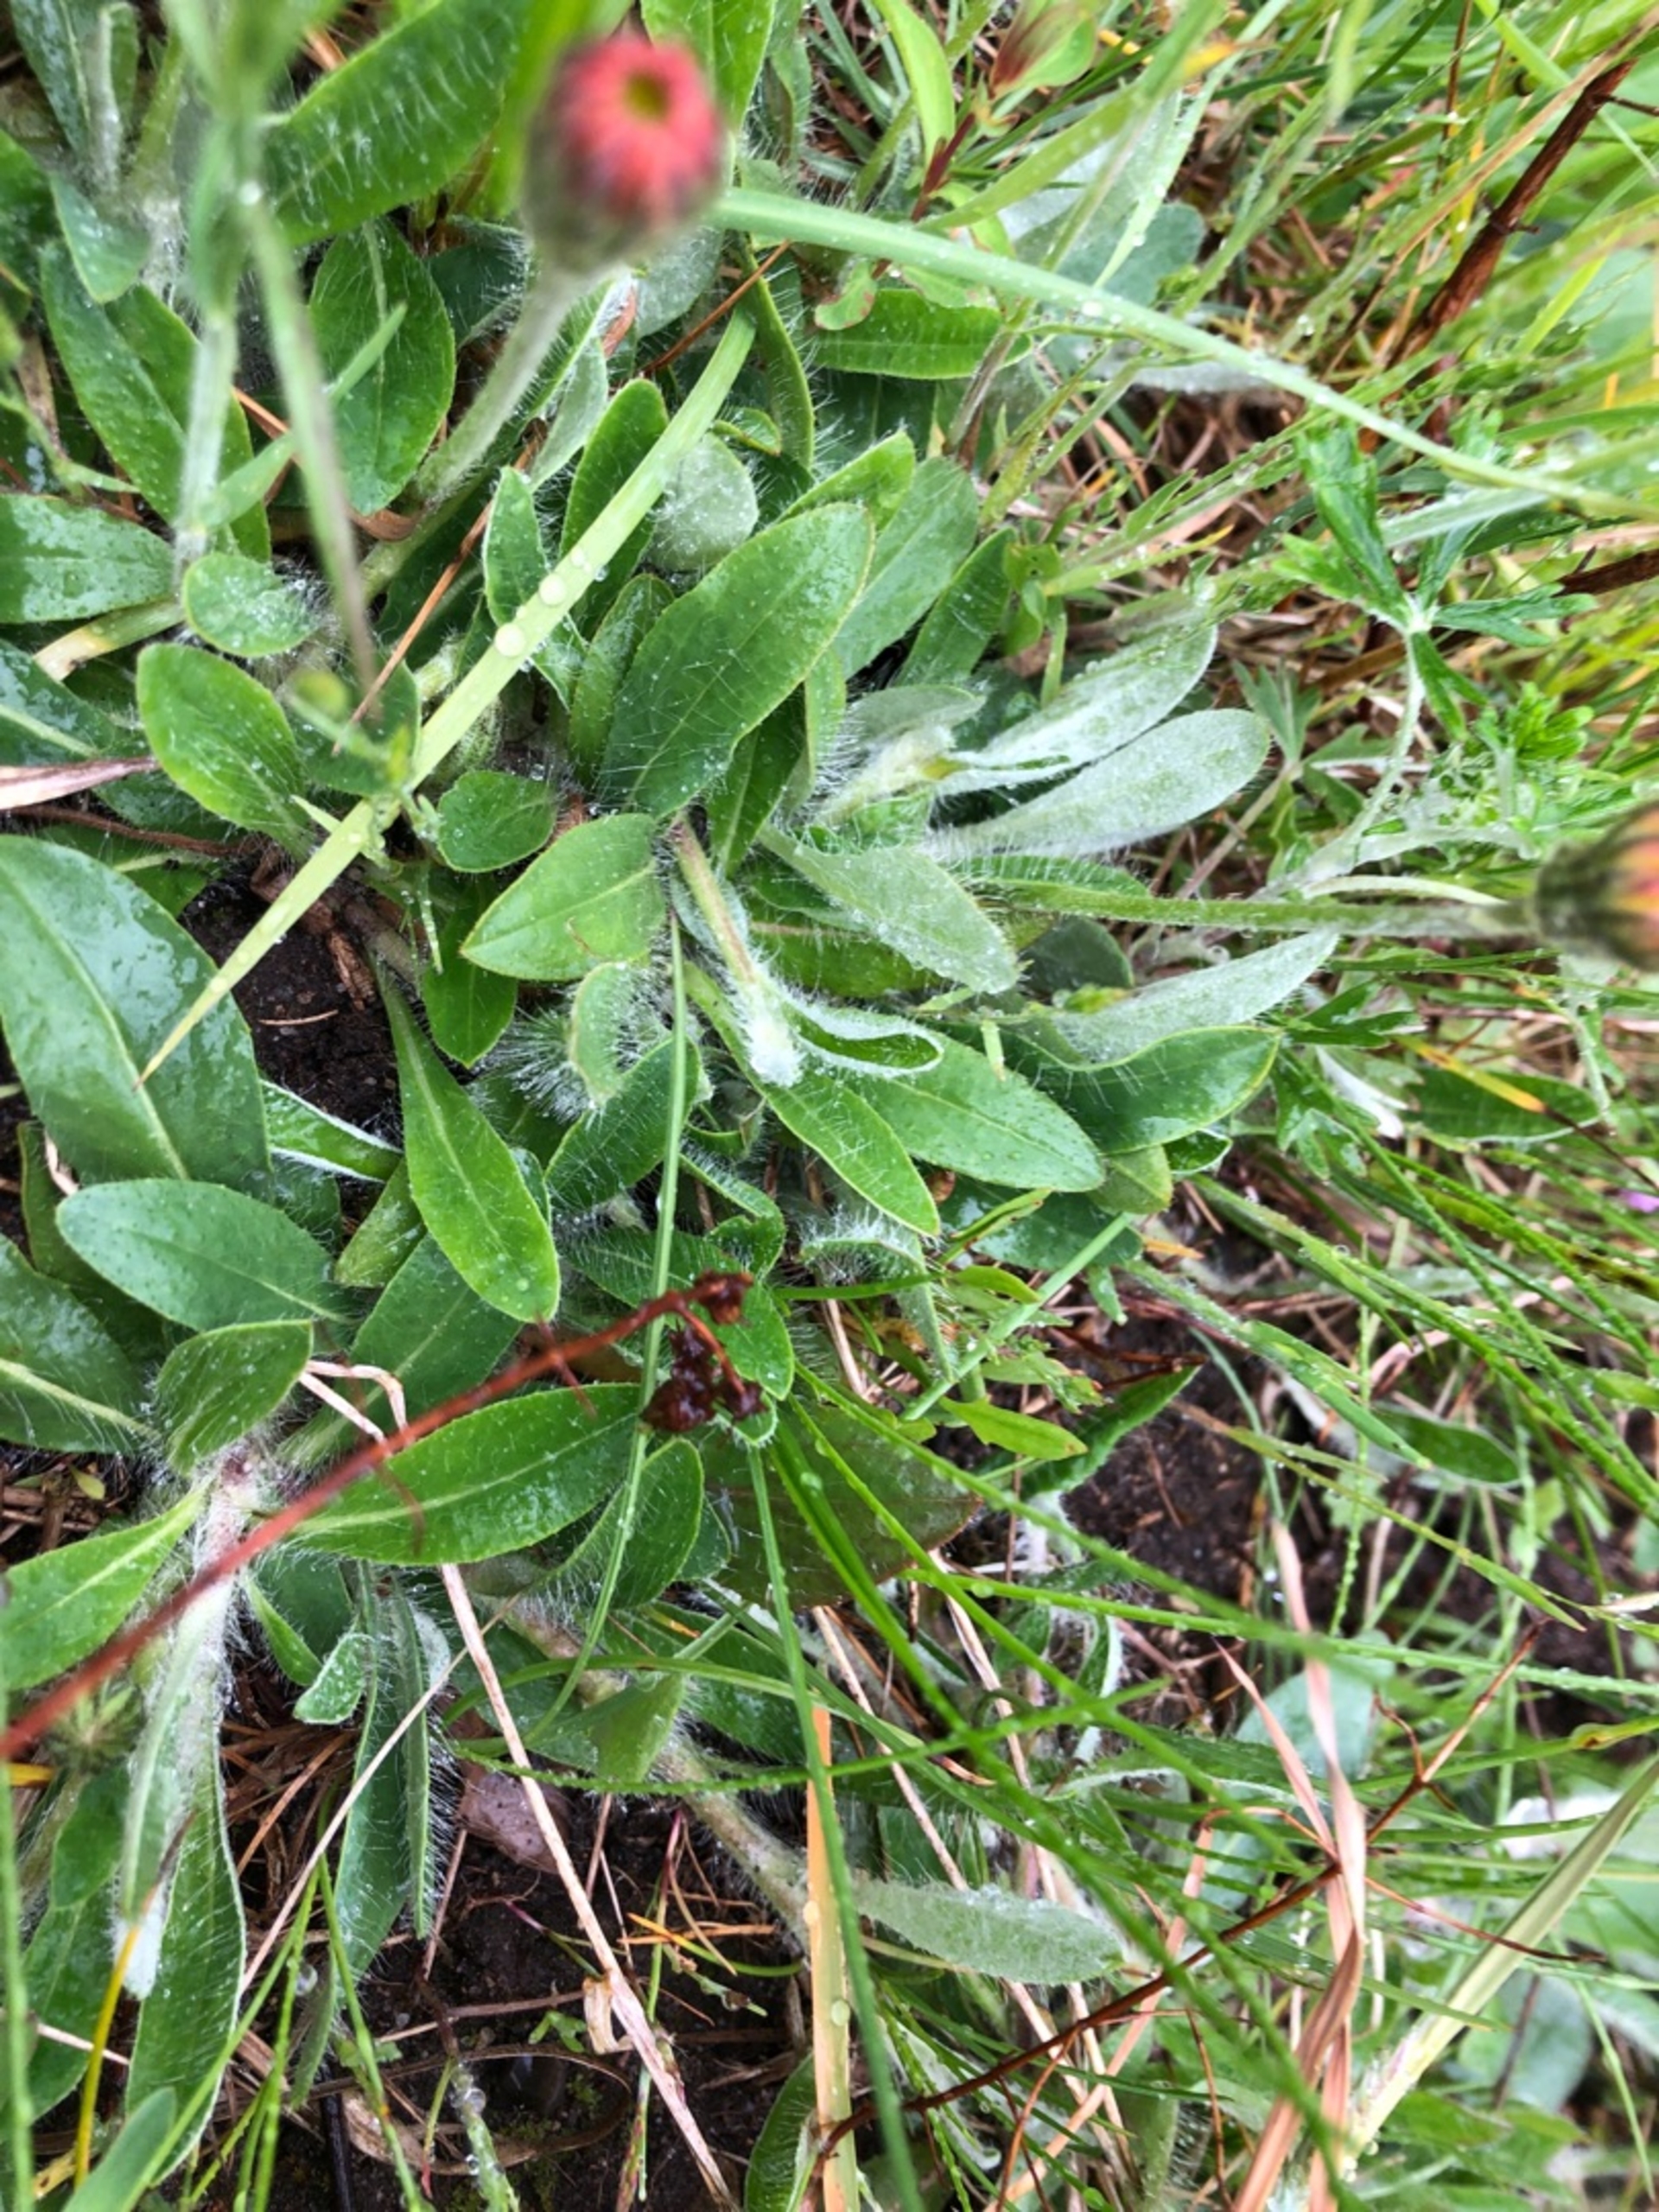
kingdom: Plantae
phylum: Tracheophyta
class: Magnoliopsida
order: Asterales
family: Asteraceae
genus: Pilosella
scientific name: Pilosella officinarum
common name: Håret høgeurt
